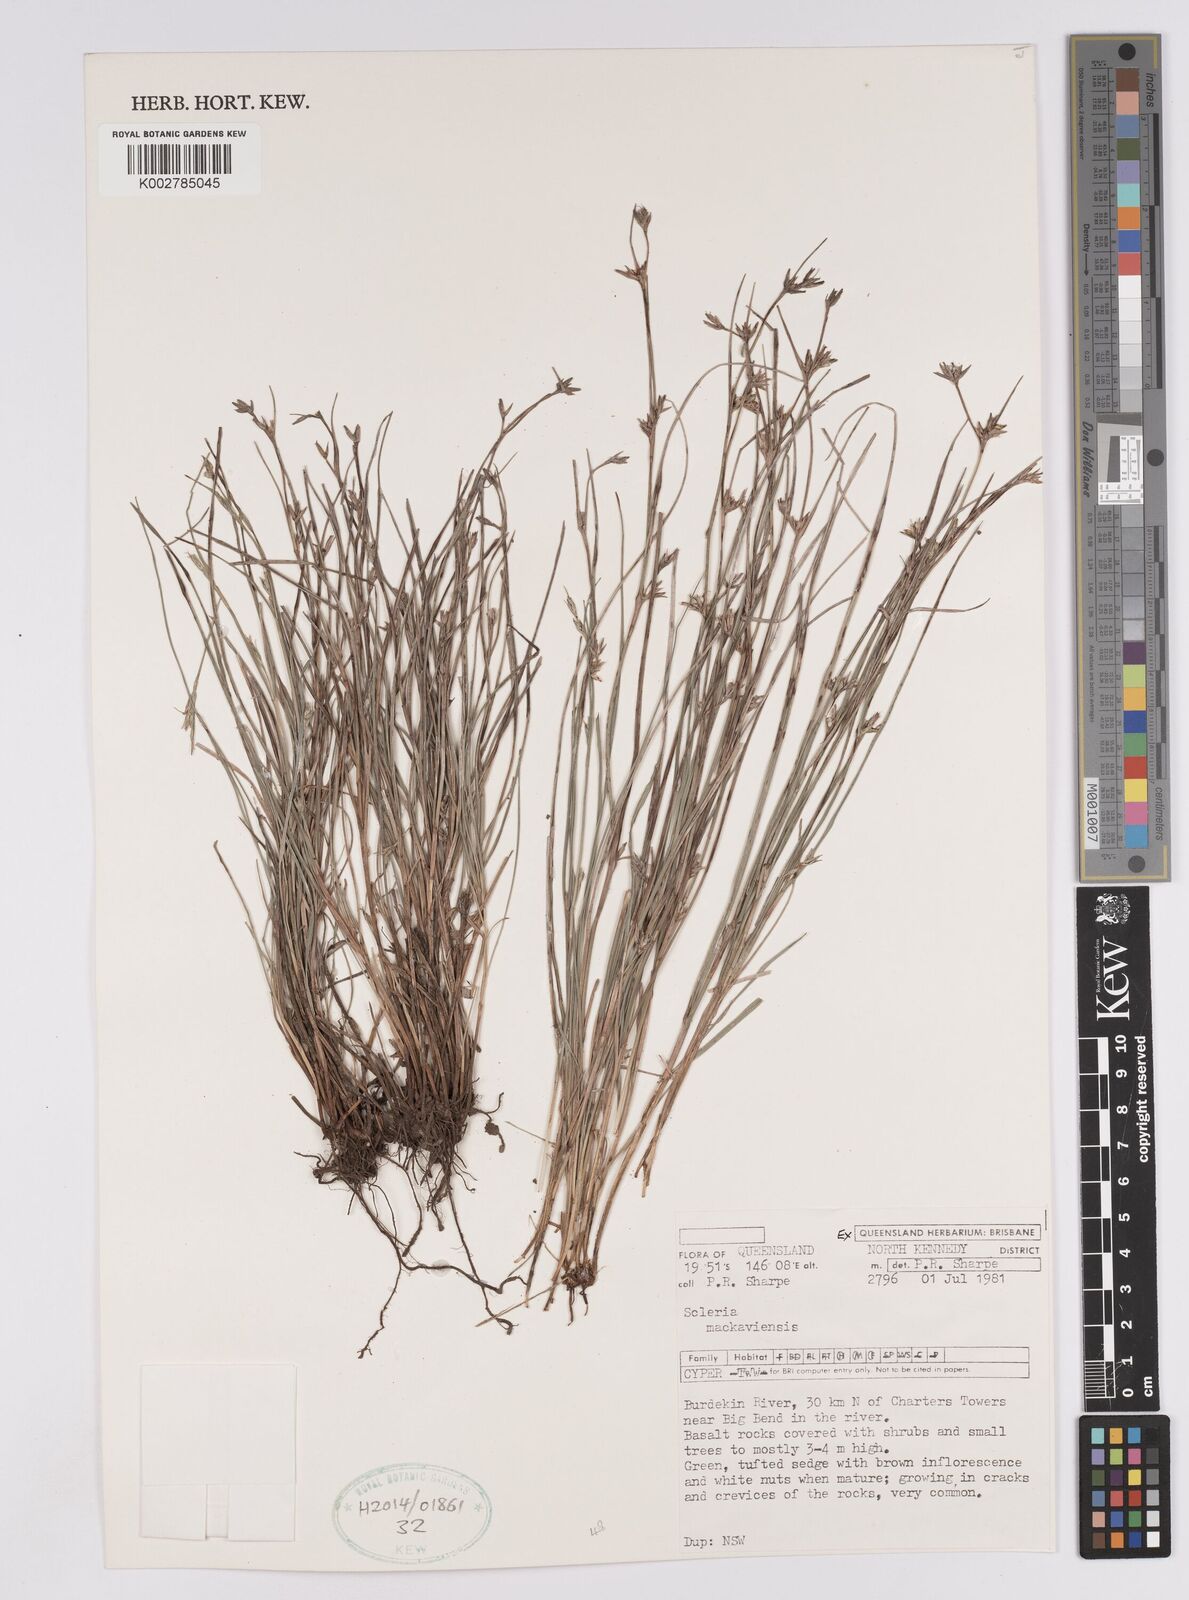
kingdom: Plantae
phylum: Tracheophyta
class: Liliopsida
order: Poales
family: Cyperaceae
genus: Scleria
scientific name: Scleria mackaviensis
